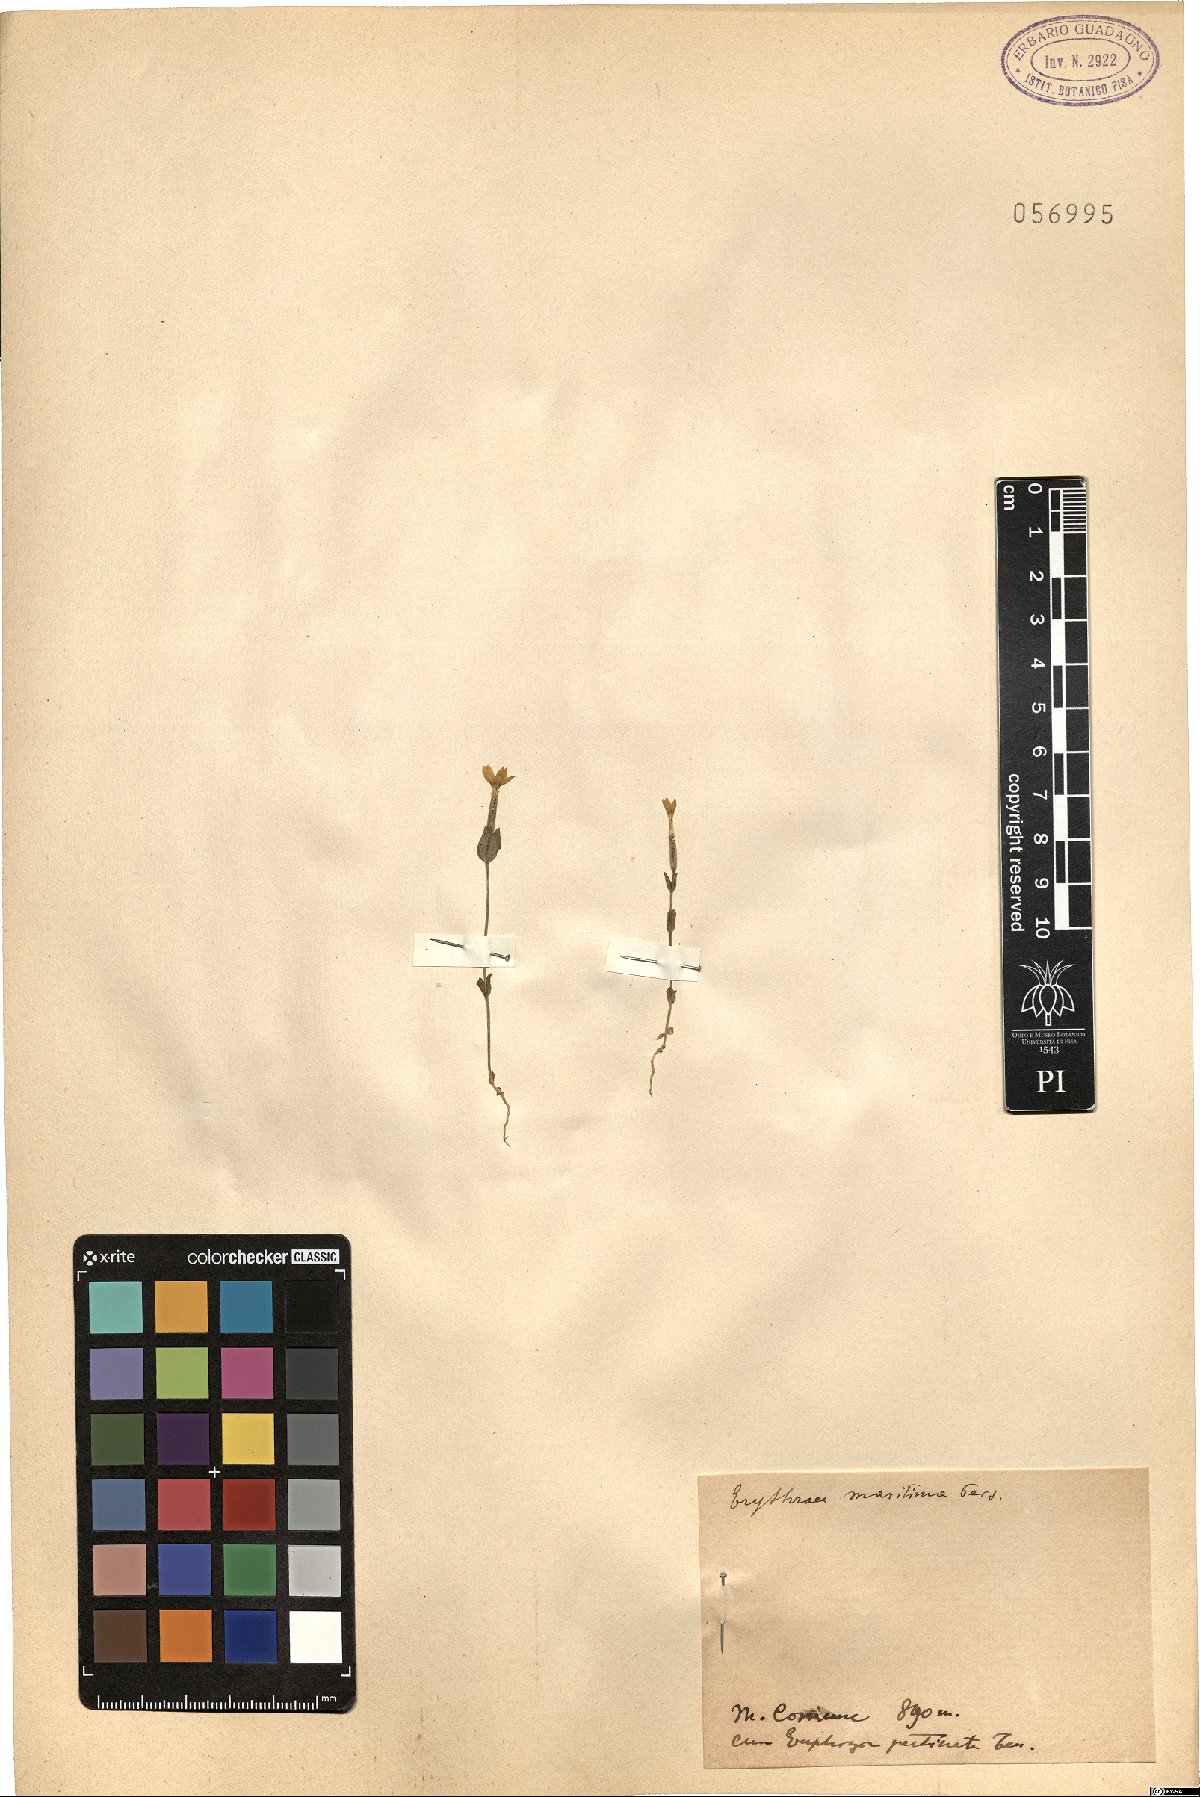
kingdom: Plantae
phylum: Tracheophyta
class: Magnoliopsida
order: Gentianales
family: Gentianaceae
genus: Centaurium
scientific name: Centaurium maritimum
